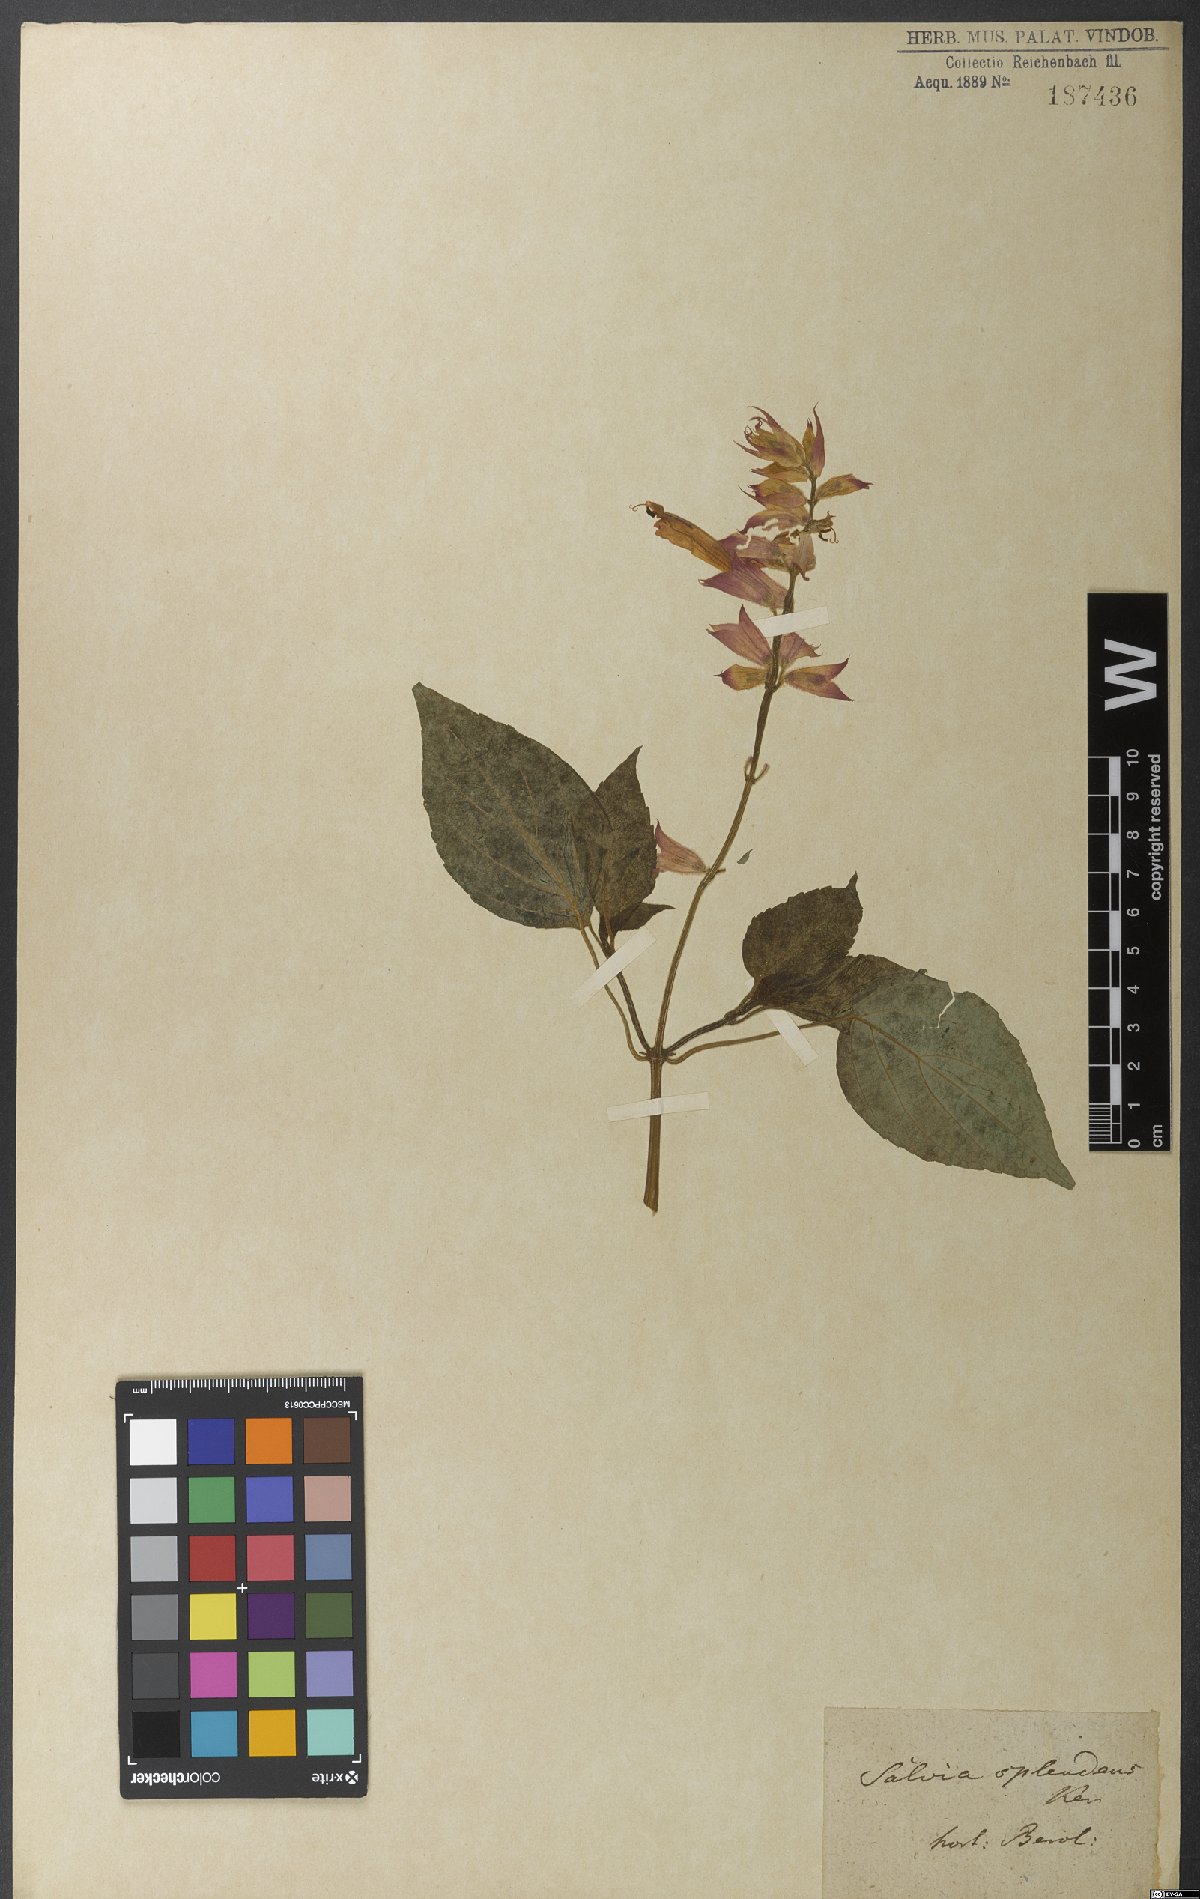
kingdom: Plantae
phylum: Tracheophyta
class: Magnoliopsida
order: Lamiales
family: Lamiaceae
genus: Salvia
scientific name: Salvia splendens
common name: Scarlet sage
